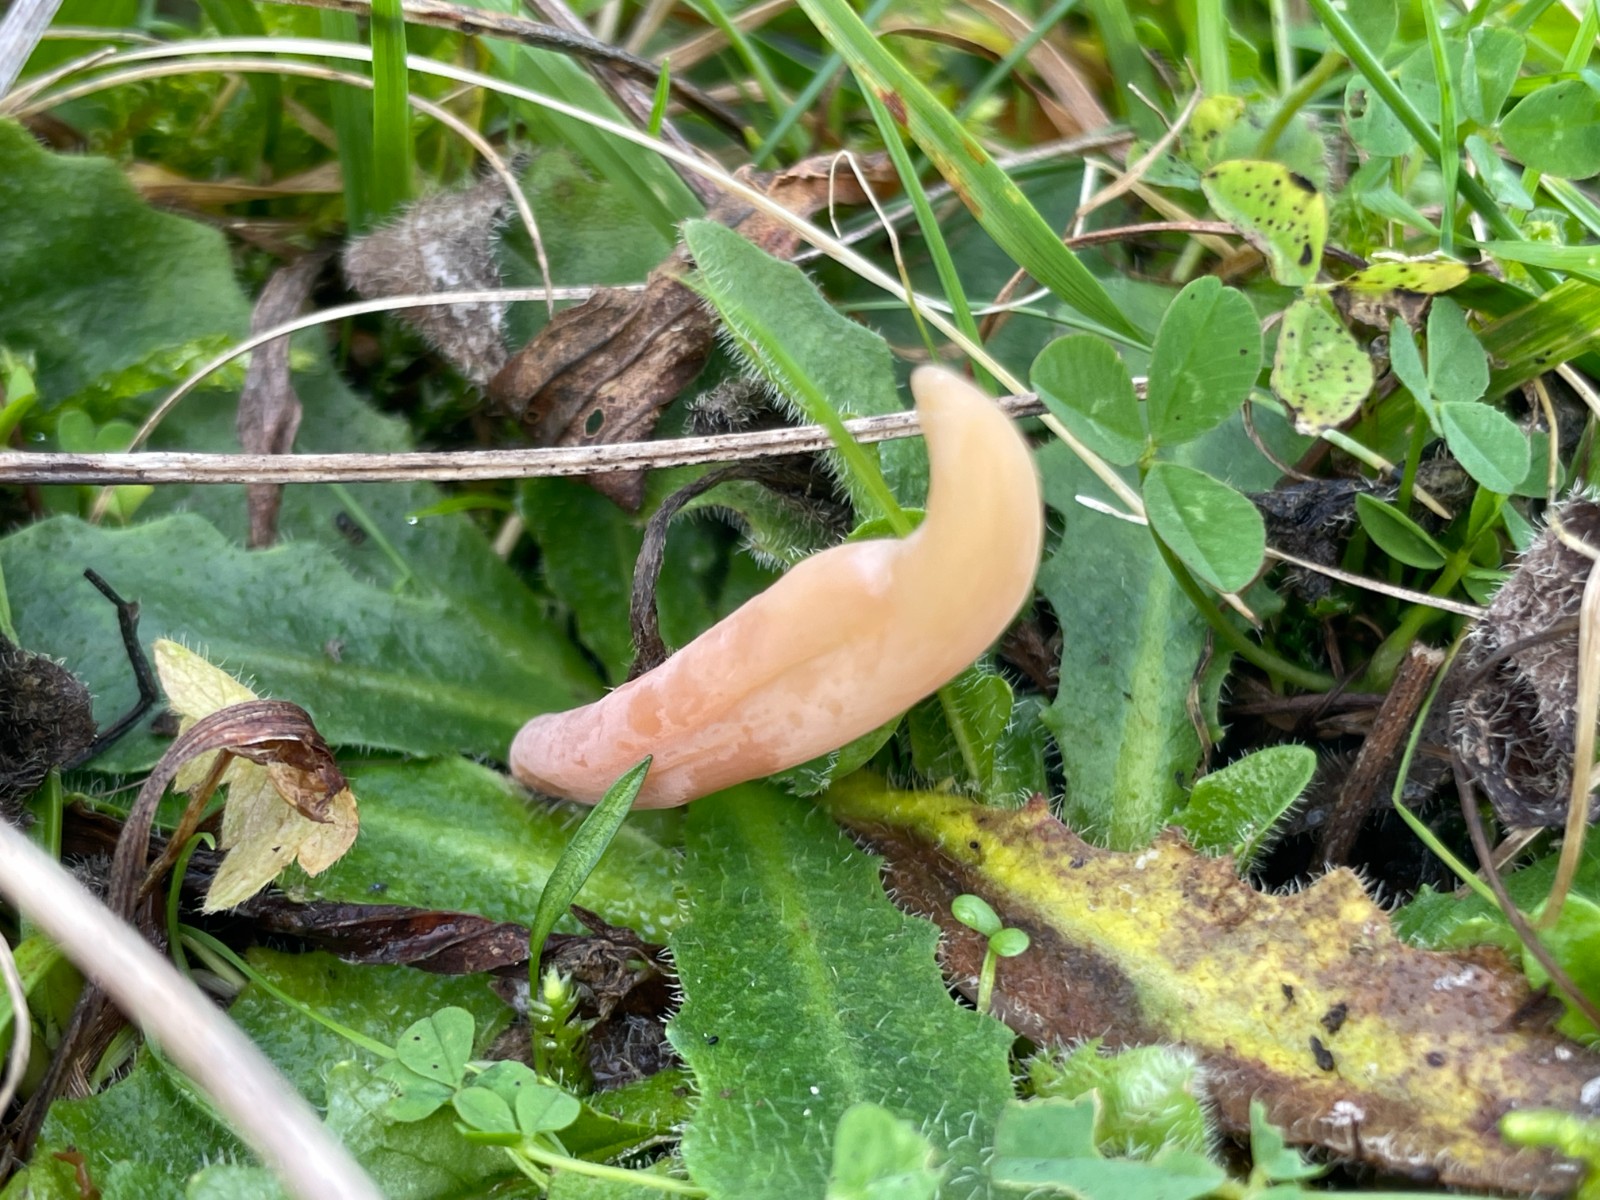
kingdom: Fungi
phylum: Basidiomycota
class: Agaricomycetes
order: Agaricales
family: Clavariaceae
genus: Clavaria
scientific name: Clavaria
